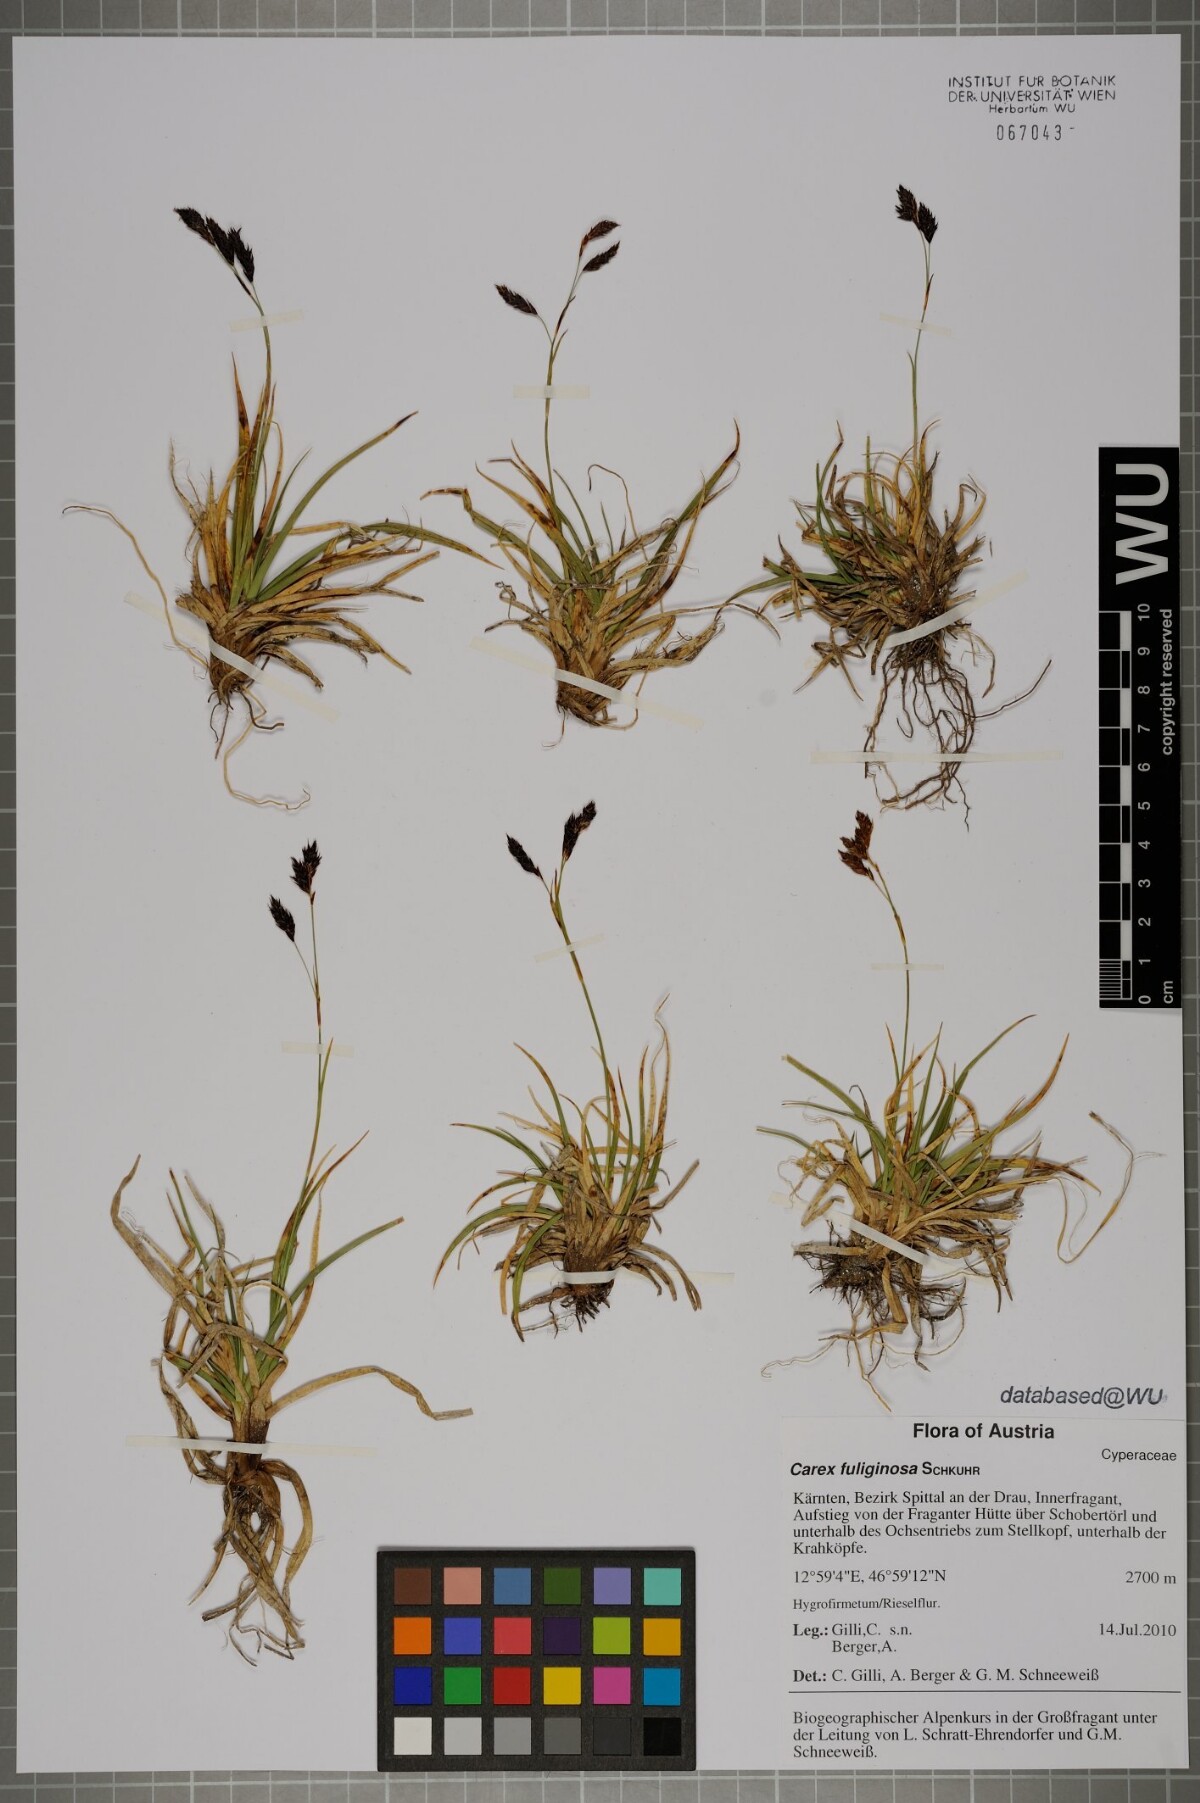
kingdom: Plantae
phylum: Tracheophyta
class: Liliopsida
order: Poales
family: Cyperaceae
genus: Carex
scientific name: Carex fuliginosa
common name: Few-flowered sedge
